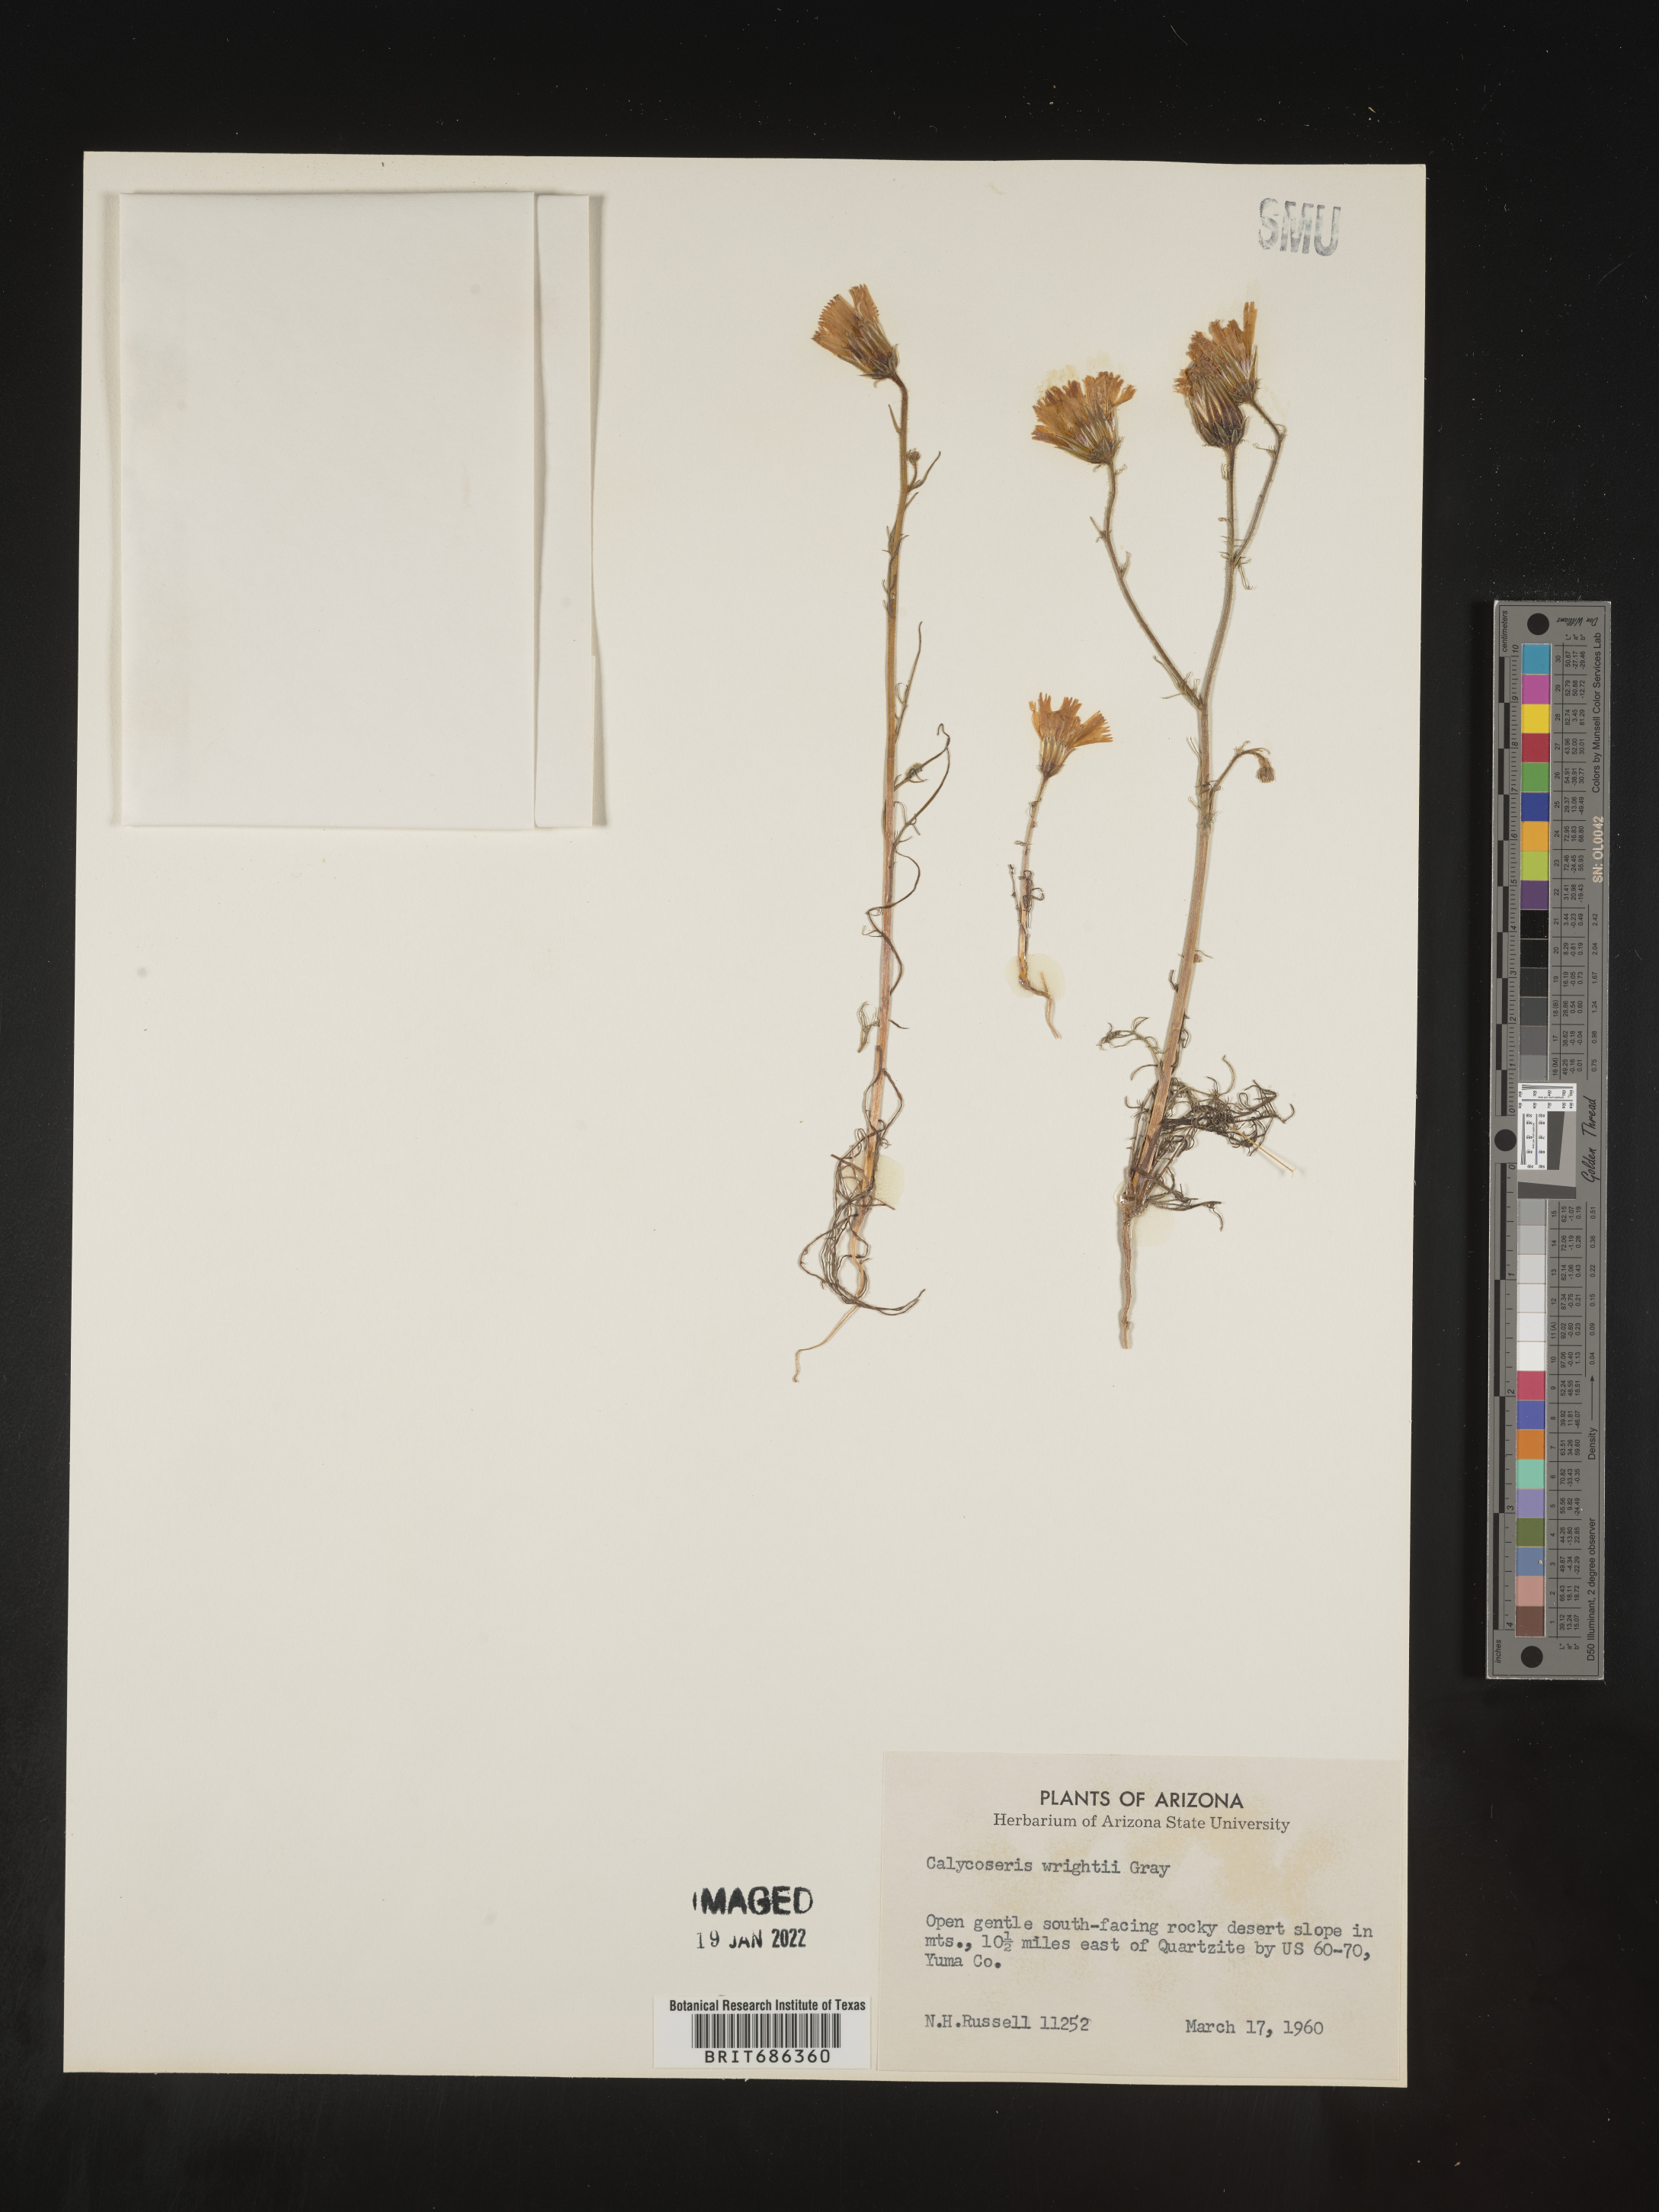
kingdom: Plantae
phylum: Tracheophyta
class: Magnoliopsida
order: Asterales
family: Asteraceae
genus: Calycoseris
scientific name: Calycoseris
